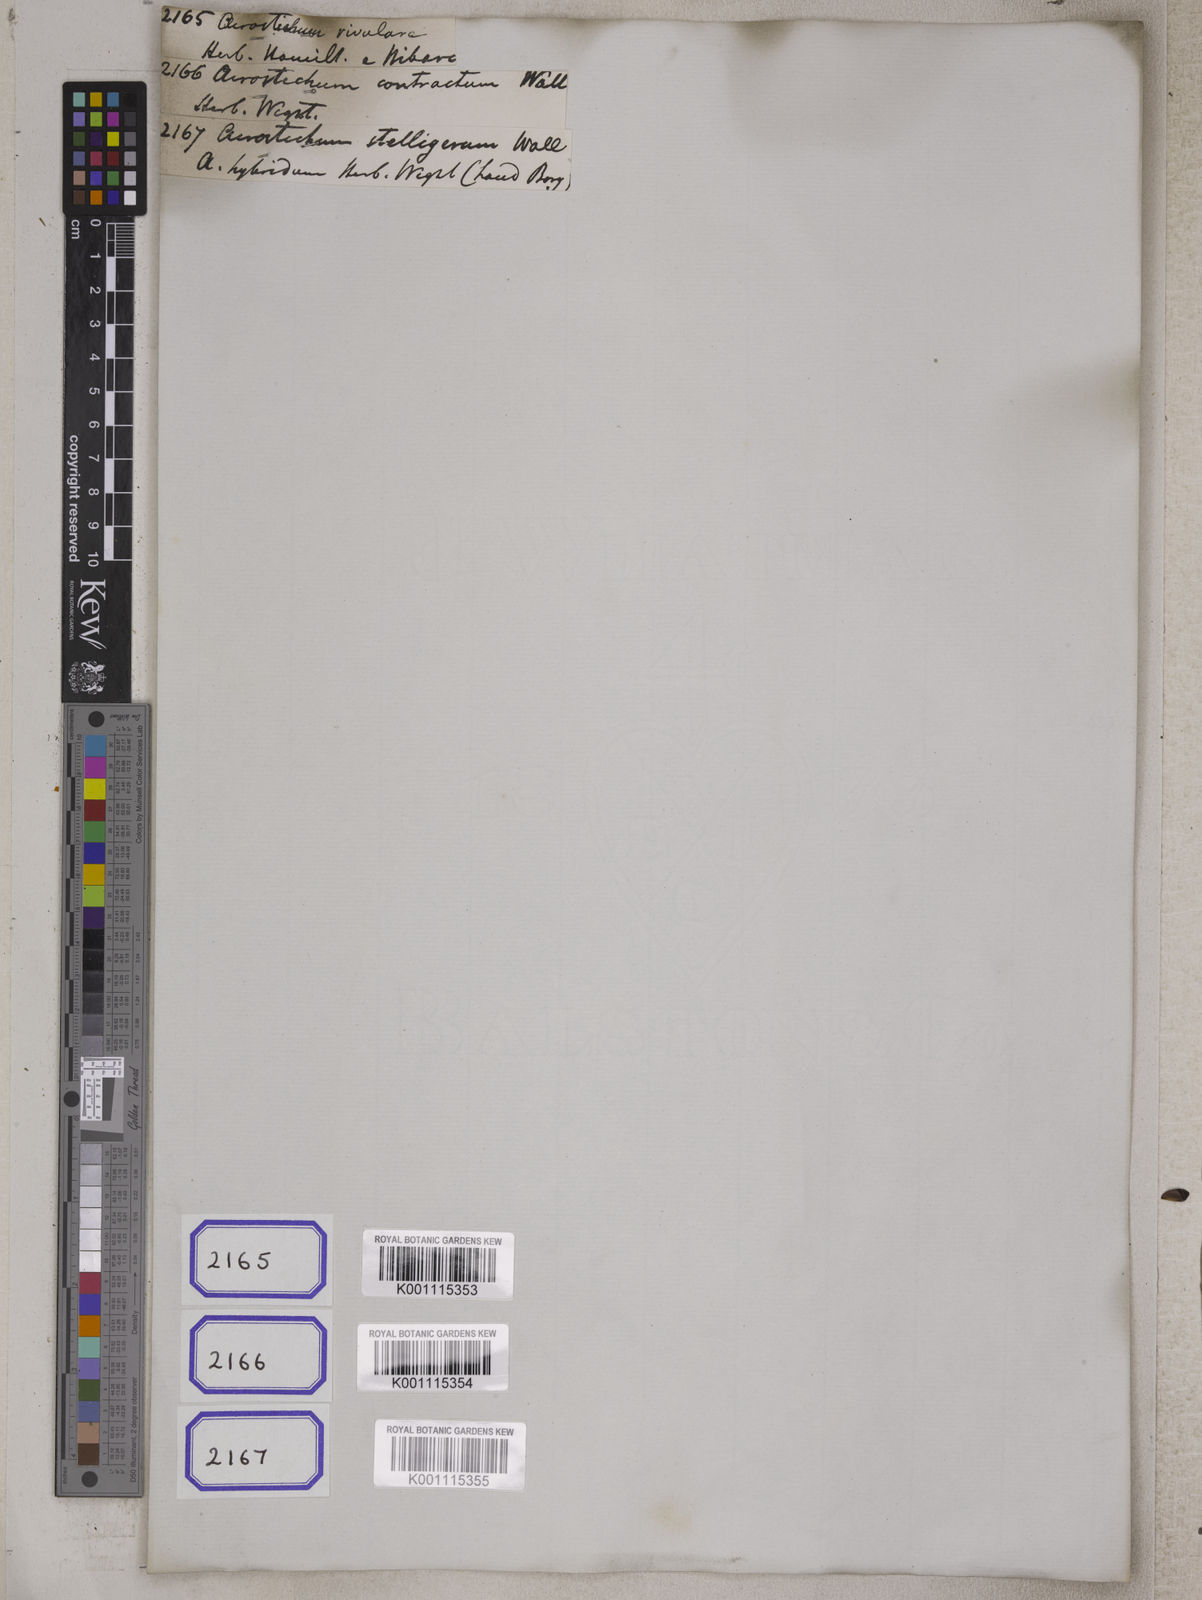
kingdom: Plantae
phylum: Tracheophyta
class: Polypodiopsida
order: Polypodiales
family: Polypodiaceae
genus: Leptochilus
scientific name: Leptochilus decurrens
